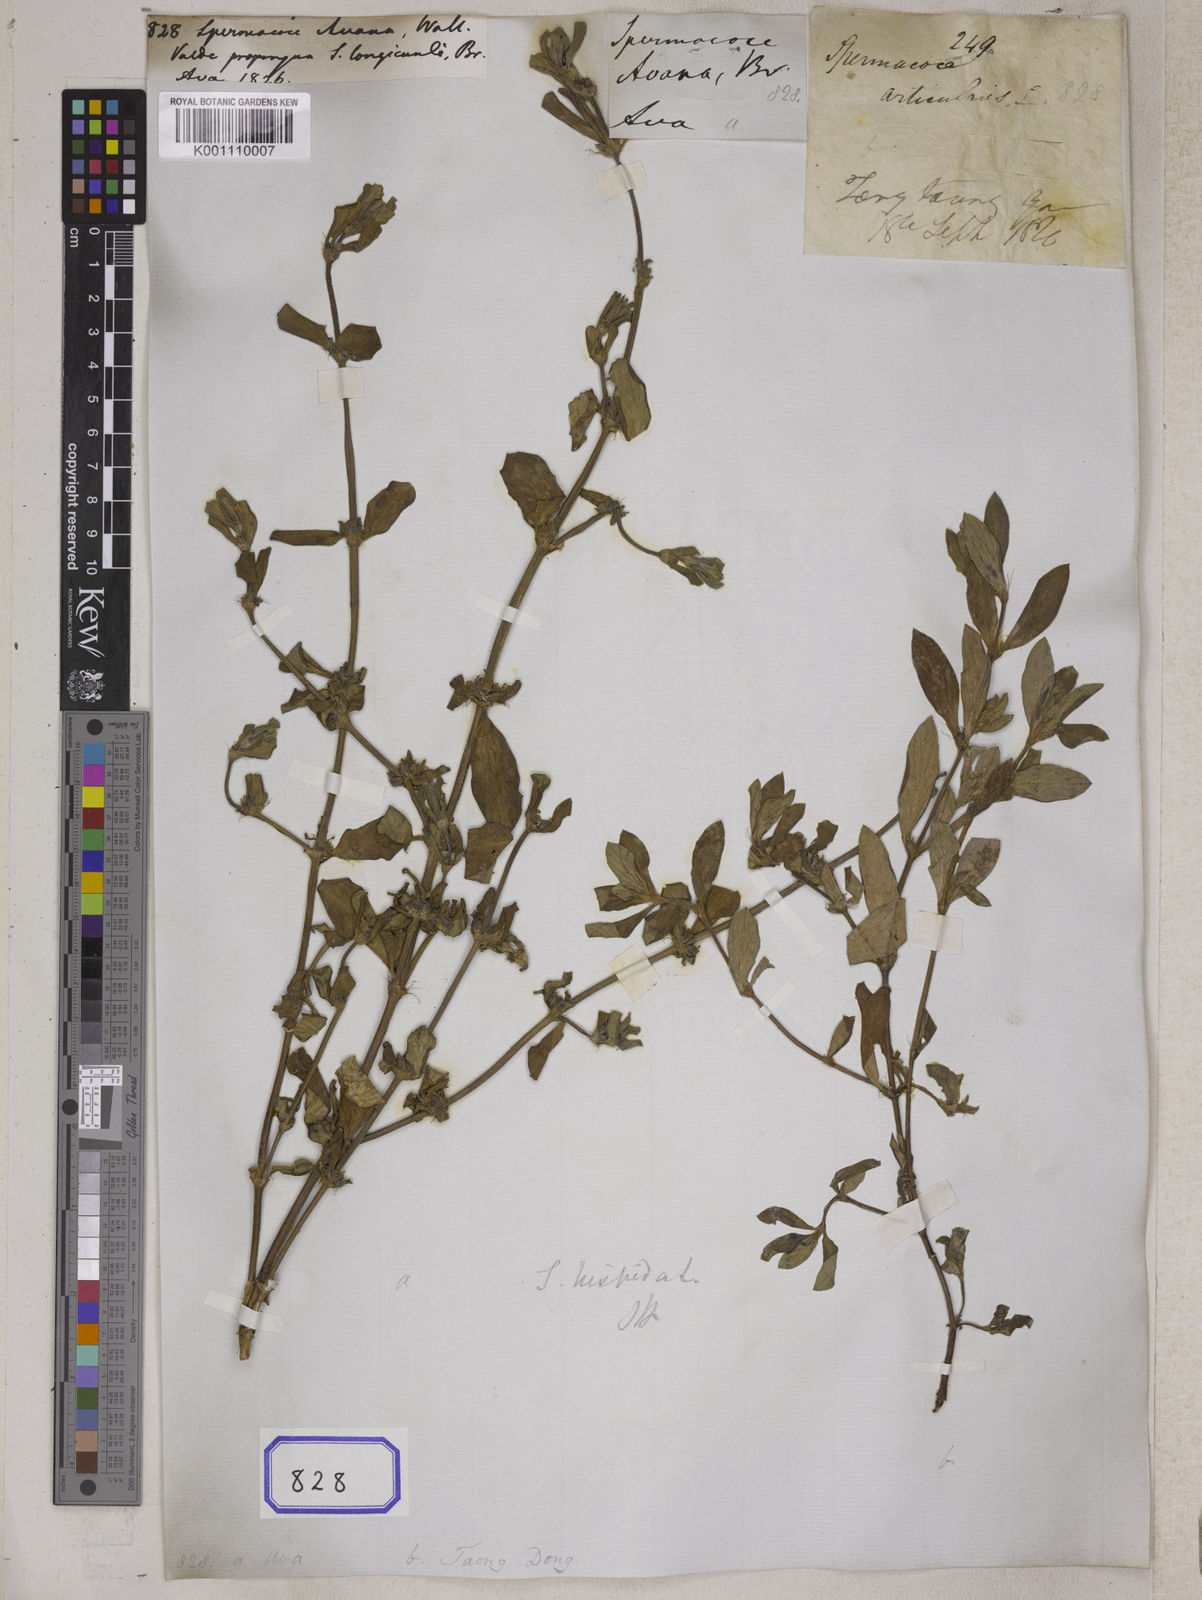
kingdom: Plantae
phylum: Tracheophyta
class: Magnoliopsida
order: Gentianales
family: Rubiaceae
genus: Spermacoce
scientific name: Spermacoce
